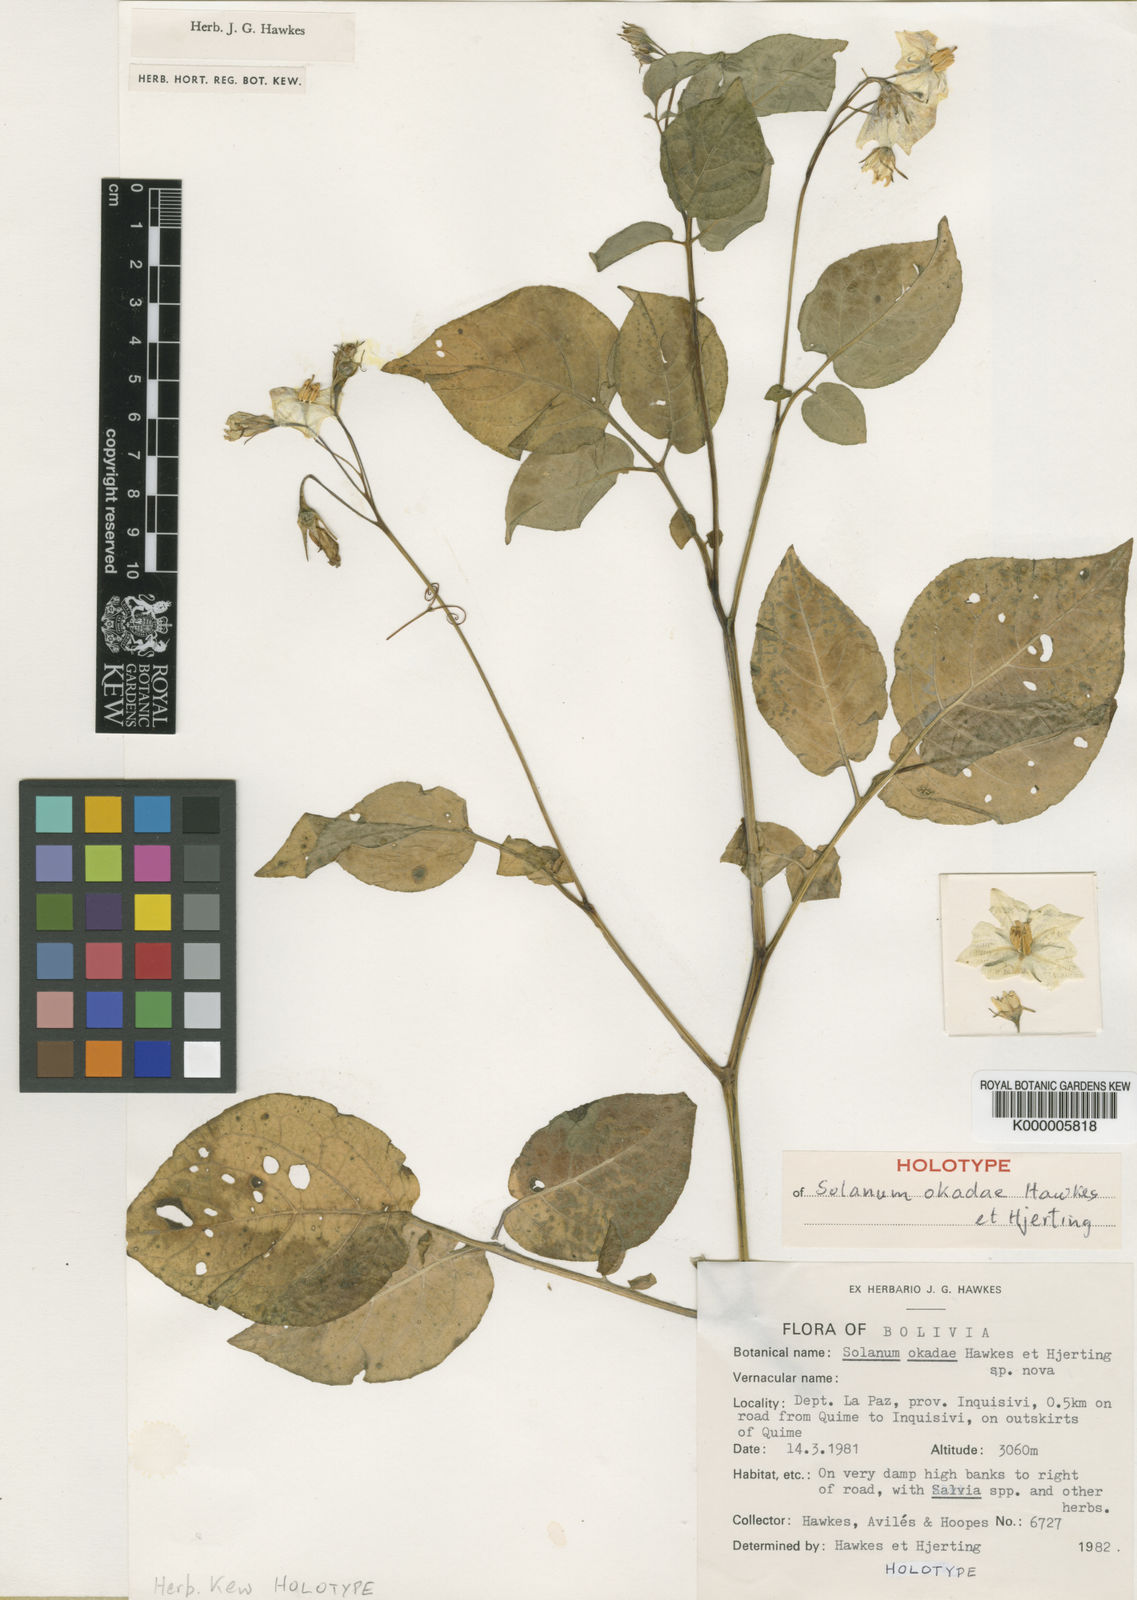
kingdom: Plantae
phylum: Tracheophyta
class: Magnoliopsida
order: Solanales
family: Solanaceae
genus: Solanum
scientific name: Solanum okadae
